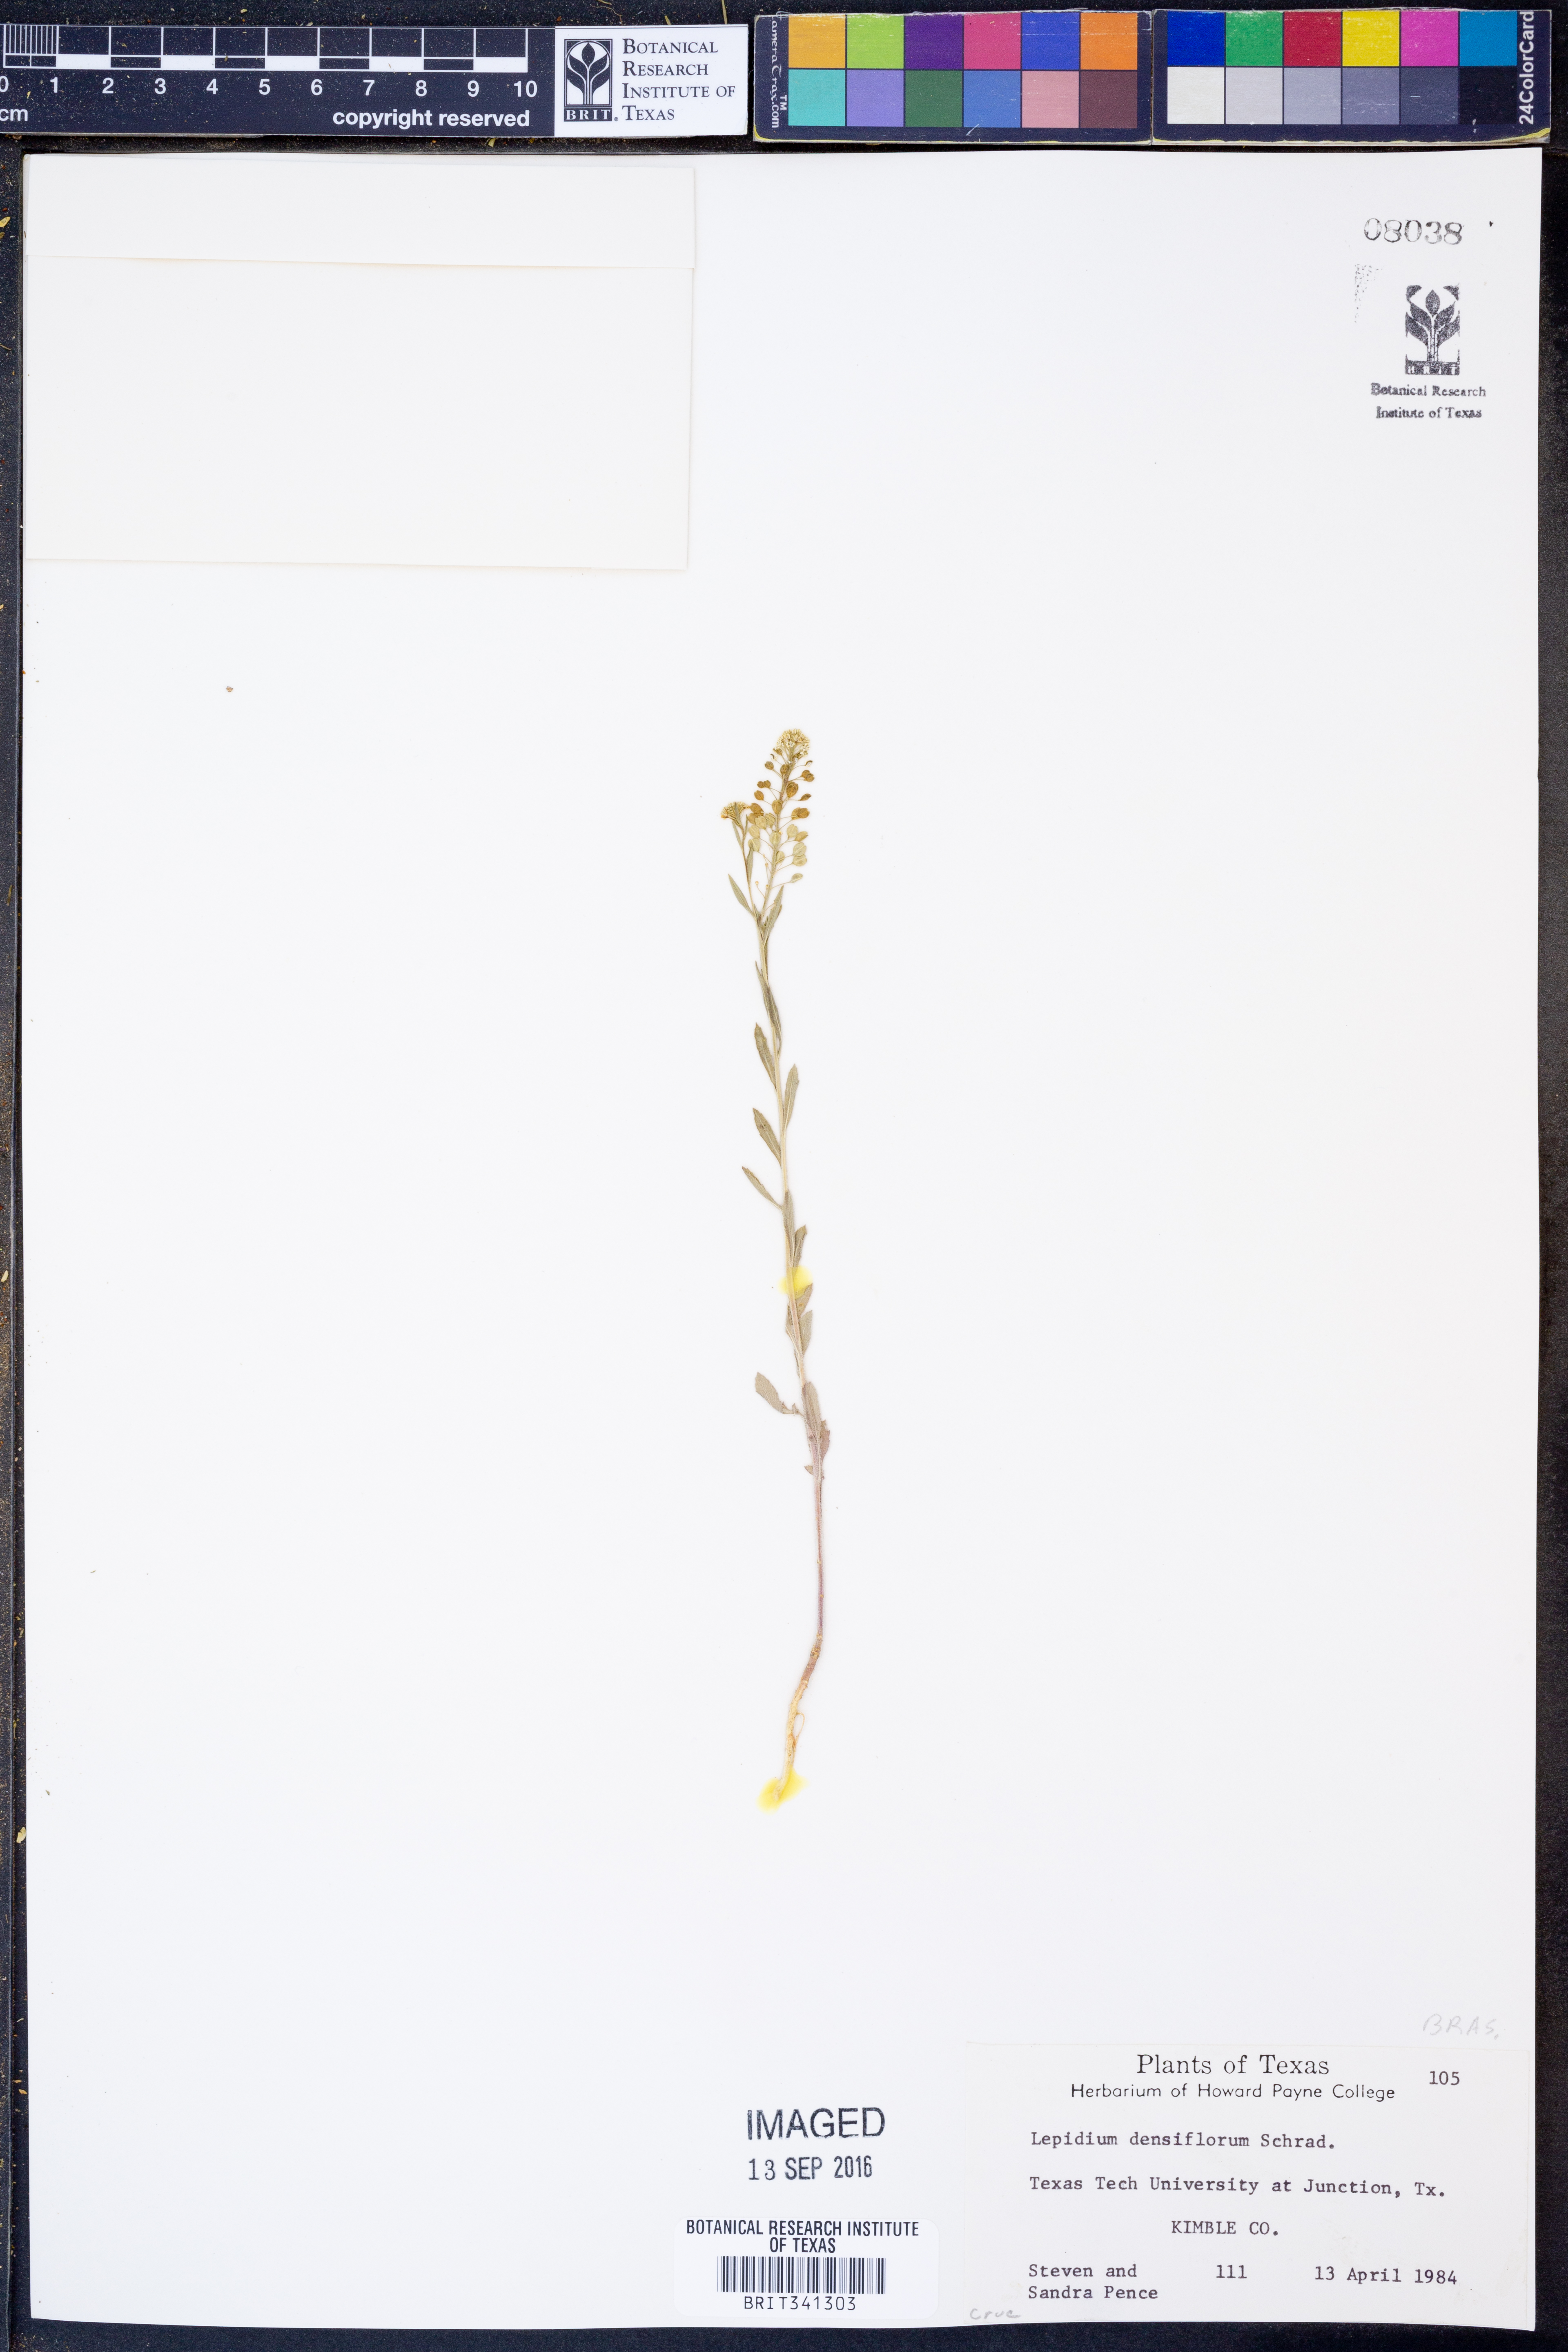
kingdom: Plantae
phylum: Tracheophyta
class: Magnoliopsida
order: Brassicales
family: Brassicaceae
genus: Lepidium
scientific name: Lepidium densiflorum
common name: Miner's pepperwort
